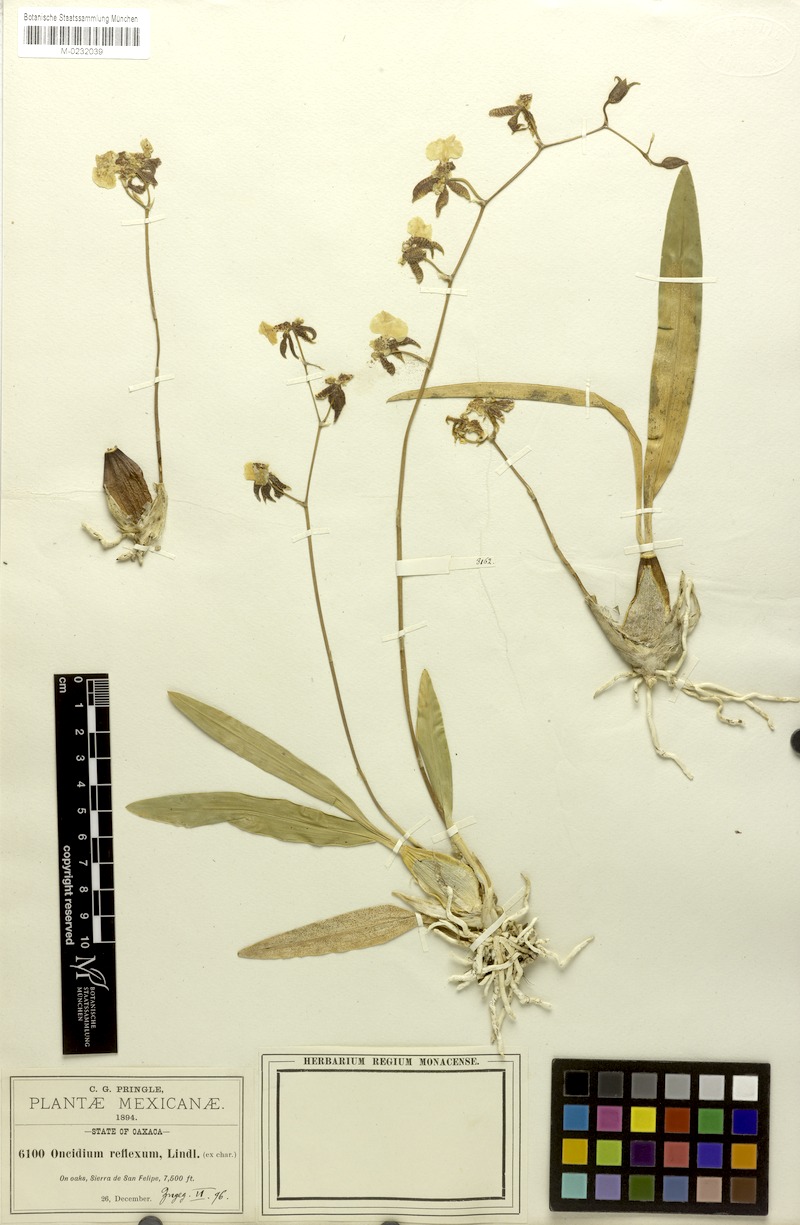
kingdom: Plantae
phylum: Tracheophyta
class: Liliopsida
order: Asparagales
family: Orchidaceae
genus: Oncidium
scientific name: Oncidium reflexum
